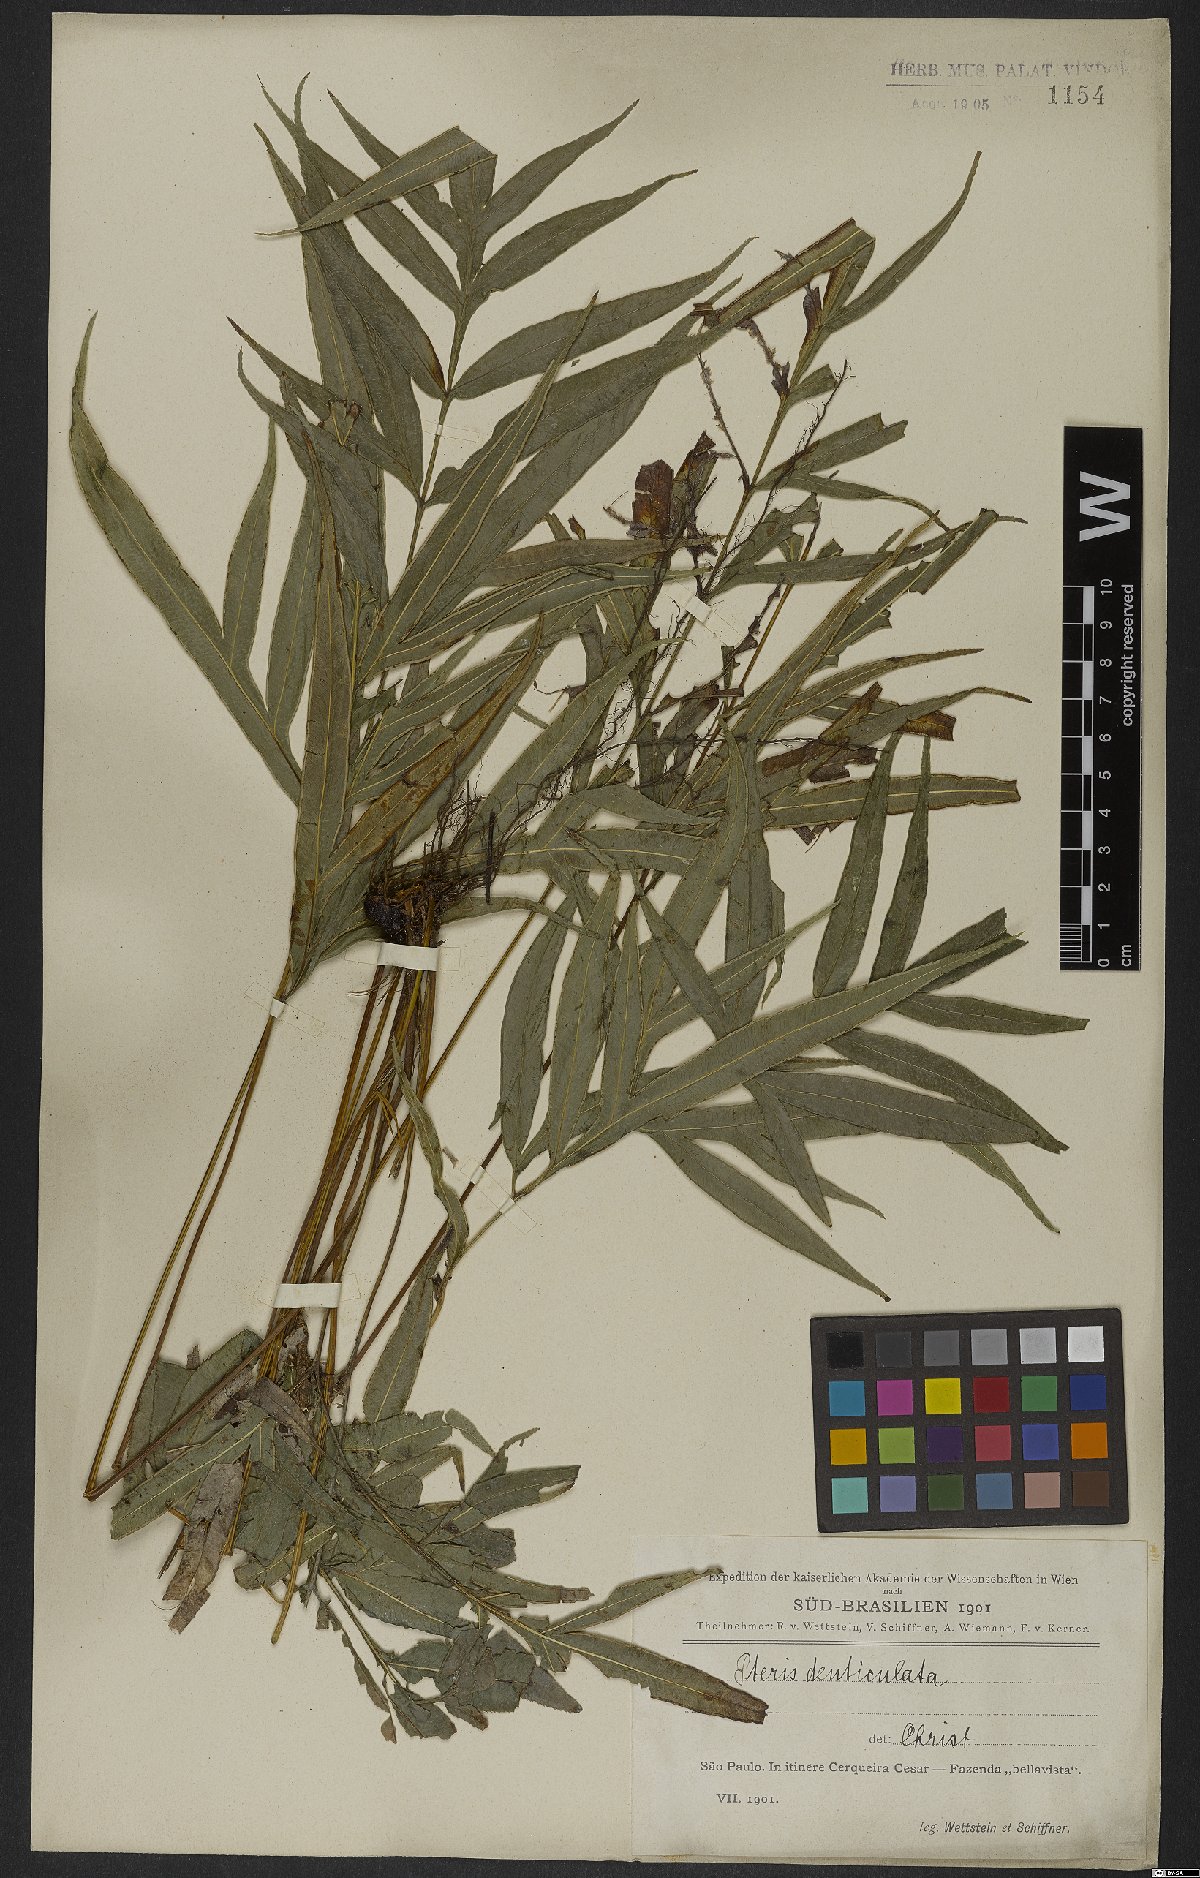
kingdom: Plantae
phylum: Tracheophyta
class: Polypodiopsida
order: Polypodiales
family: Pteridaceae
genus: Pteris
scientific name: Pteris denticulata
